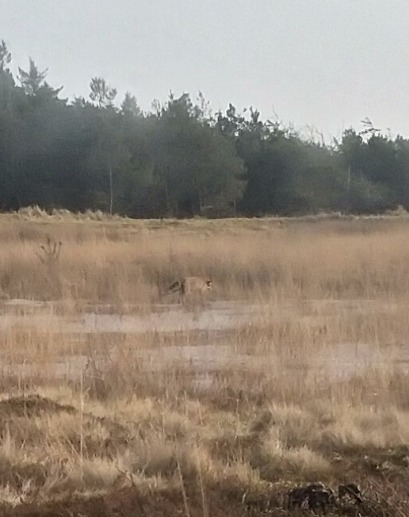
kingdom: Animalia
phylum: Chordata
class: Mammalia
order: Carnivora
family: Canidae
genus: Vulpes
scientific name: Vulpes vulpes
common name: Ræv
